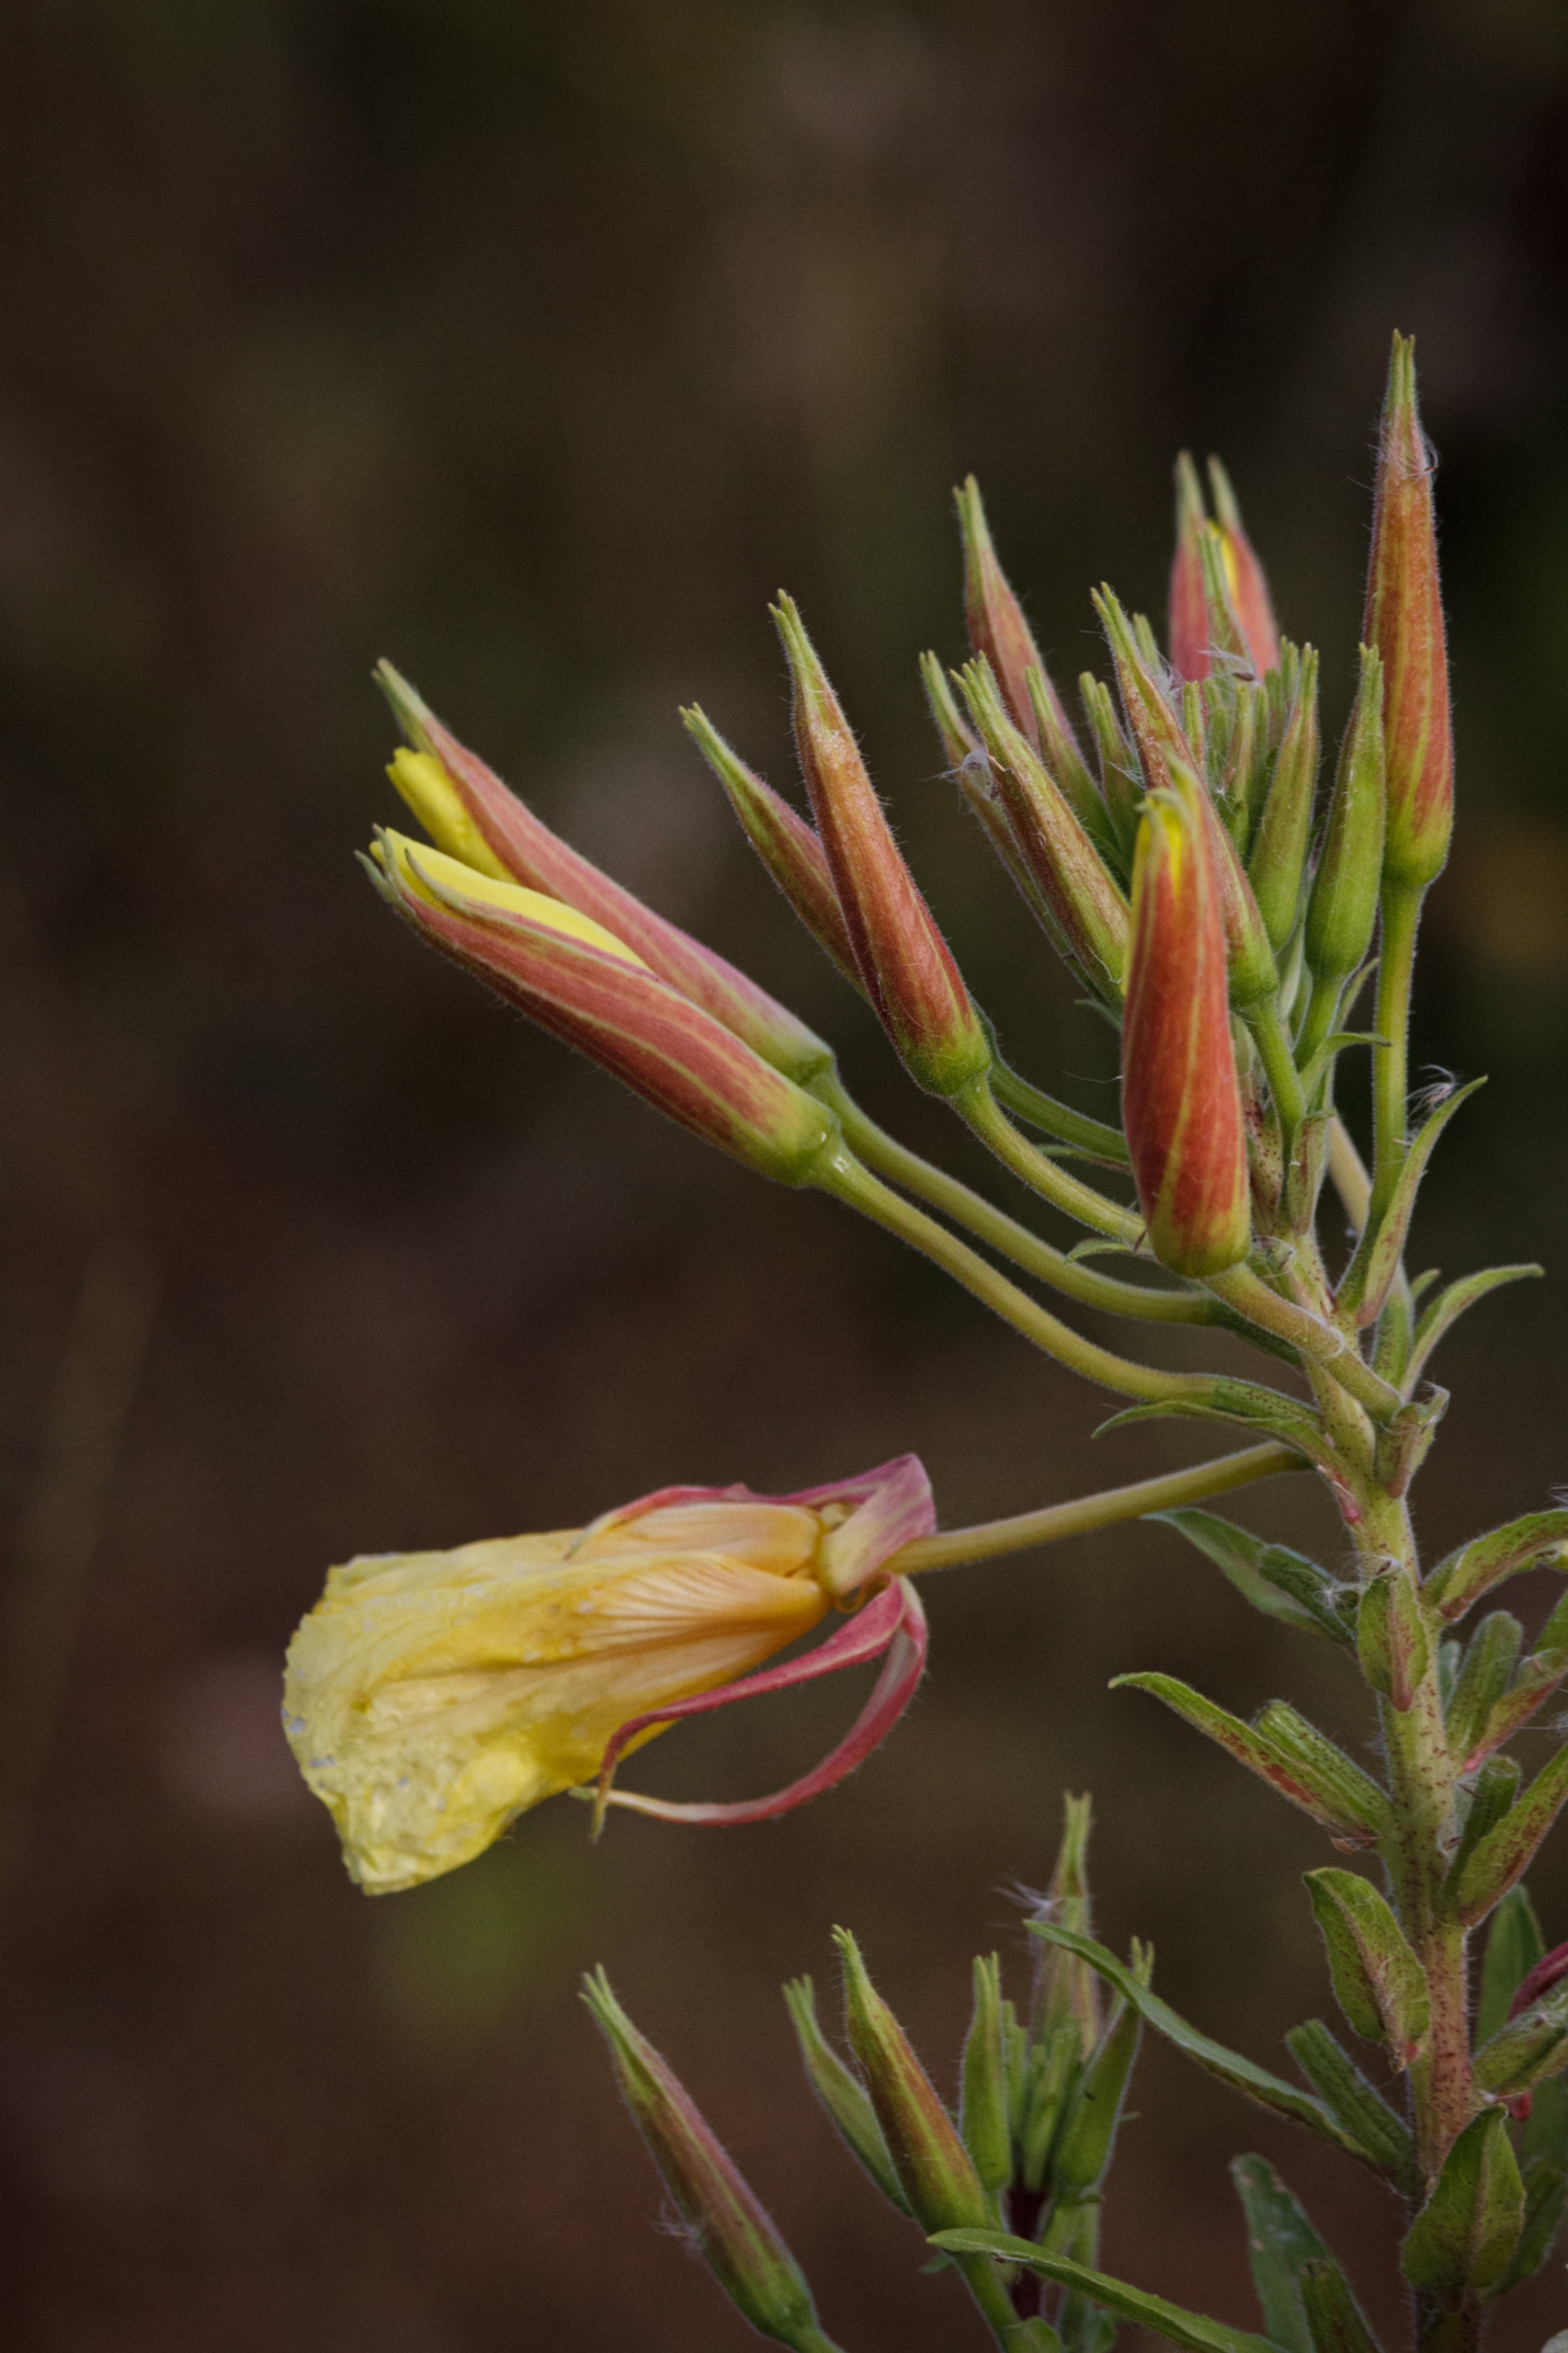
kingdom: Plantae
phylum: Tracheophyta
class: Magnoliopsida
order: Myrtales
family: Onagraceae
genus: Oenothera
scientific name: Oenothera glazioviana
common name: Kæmpe-natlys
